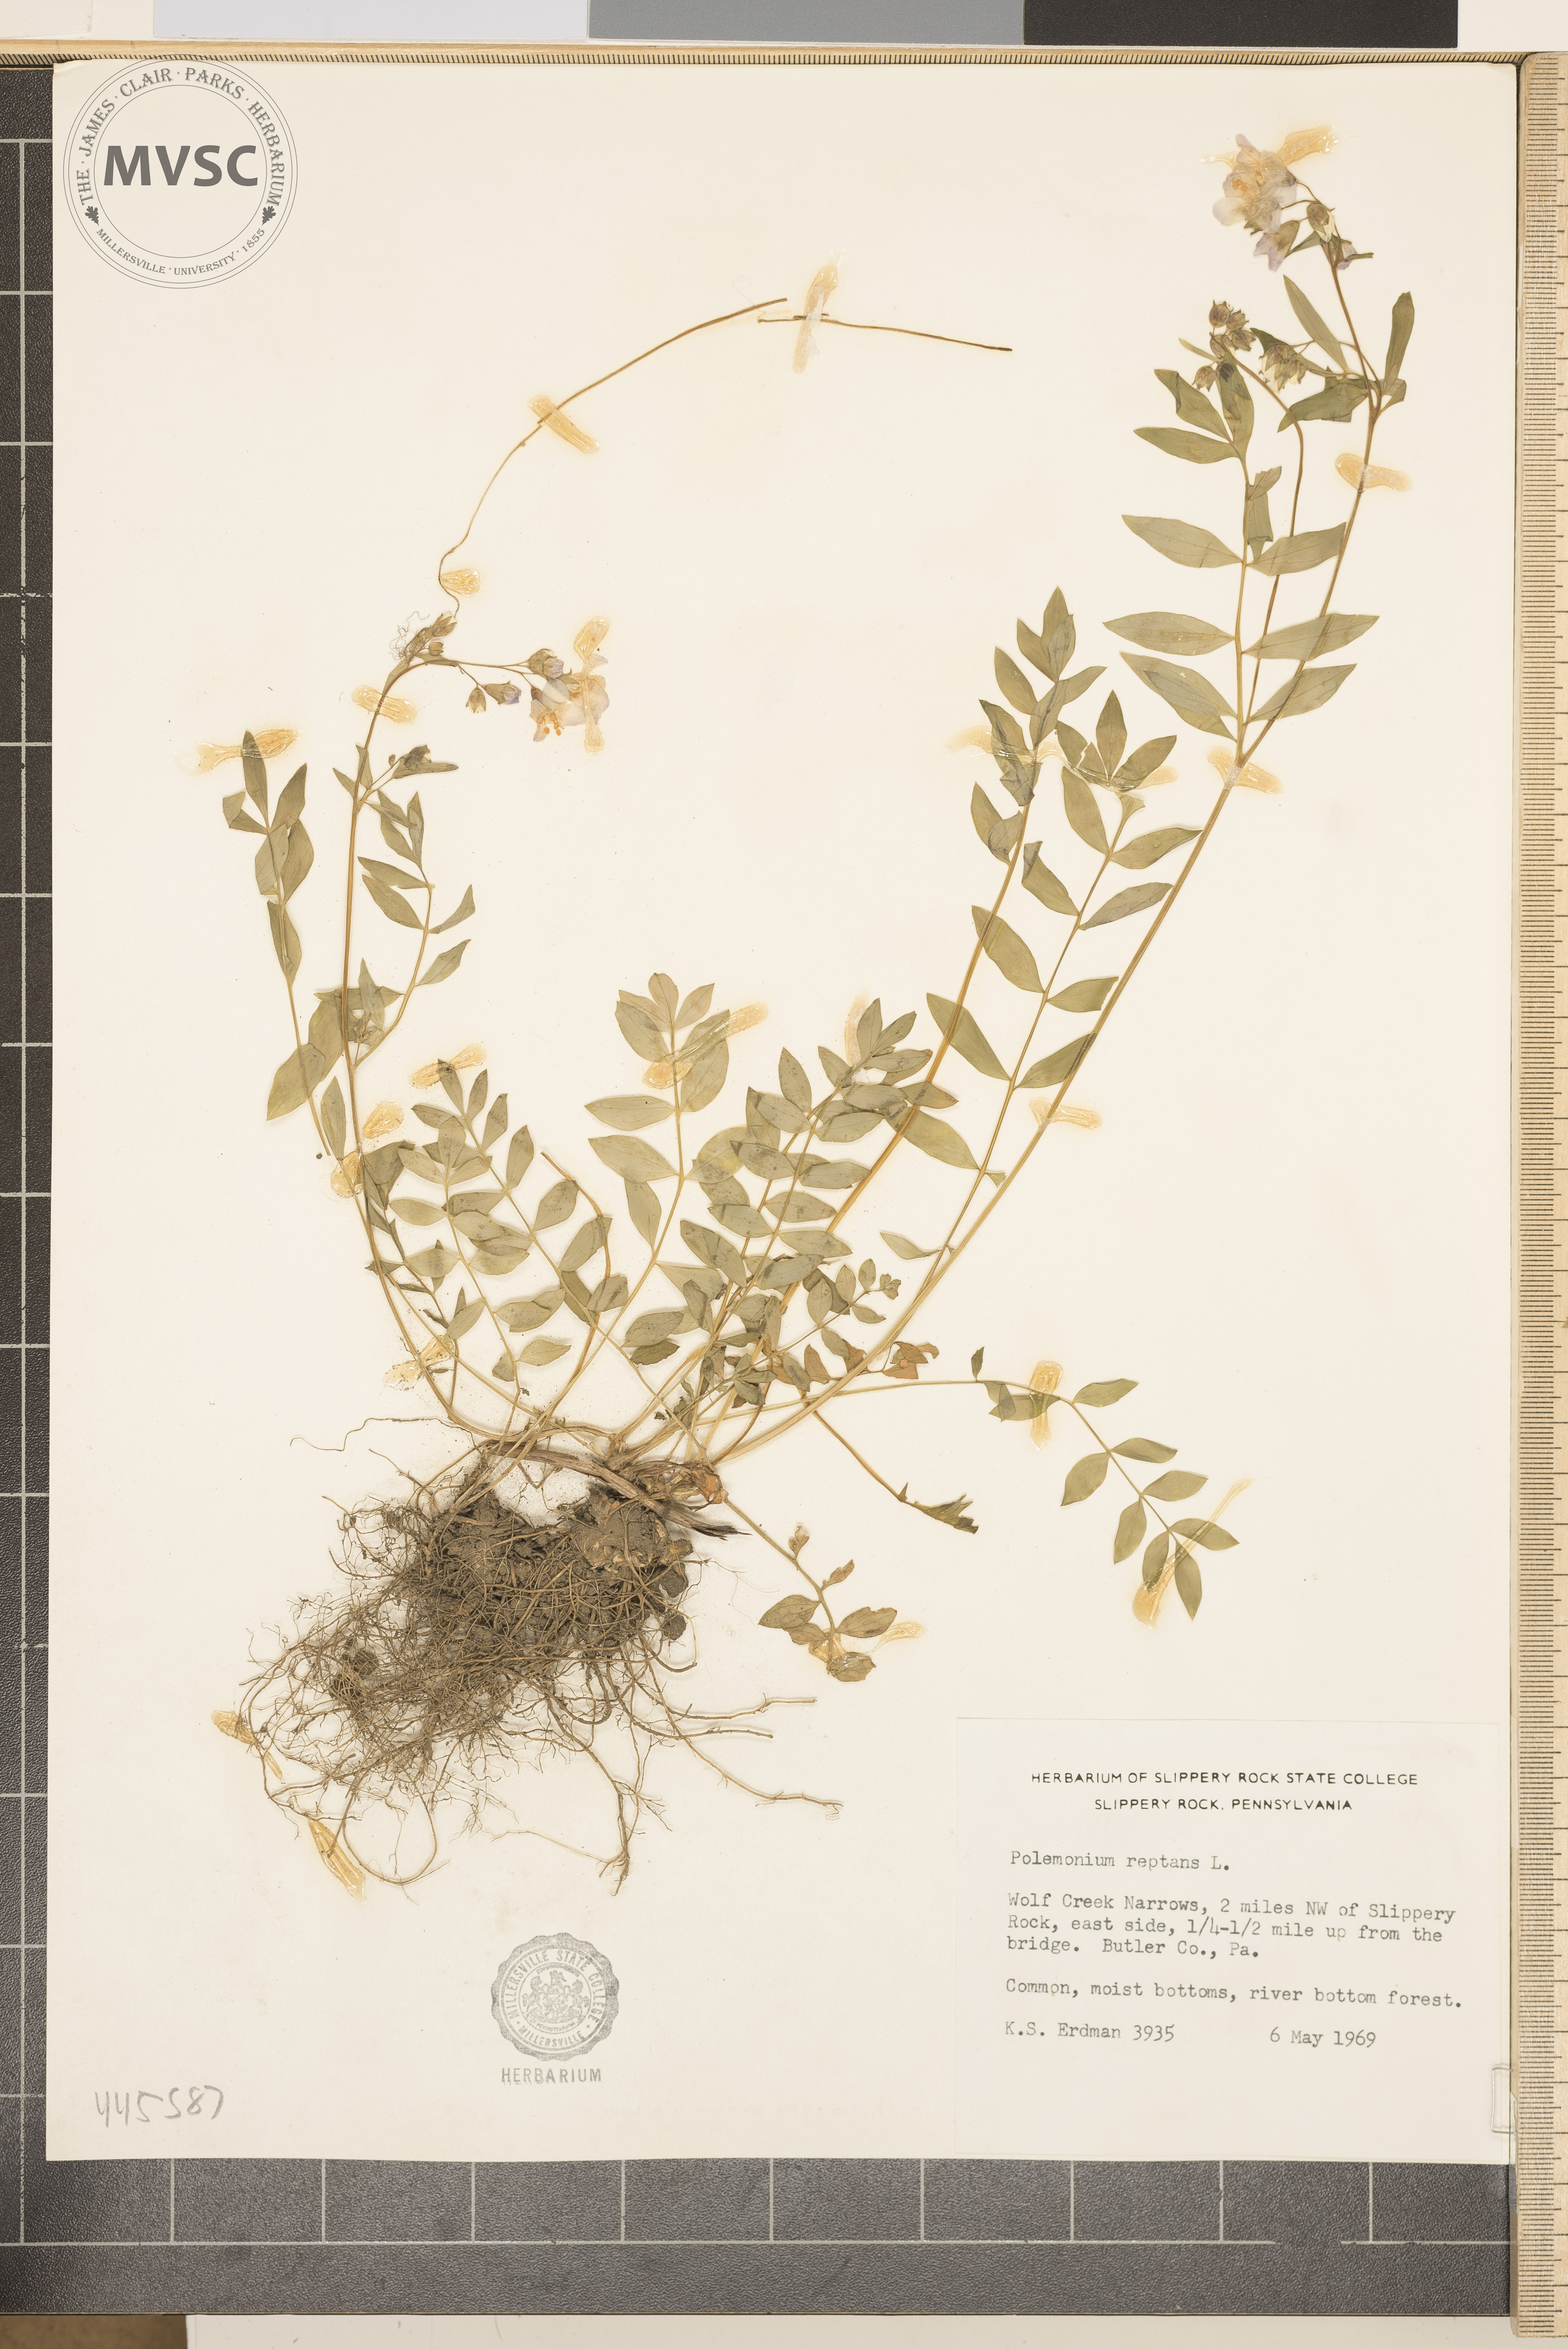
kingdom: Plantae
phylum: Tracheophyta
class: Magnoliopsida
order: Ericales
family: Polemoniaceae
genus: Polemonium
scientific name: Polemonium reptans
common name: Creeping jacob's-ladder
